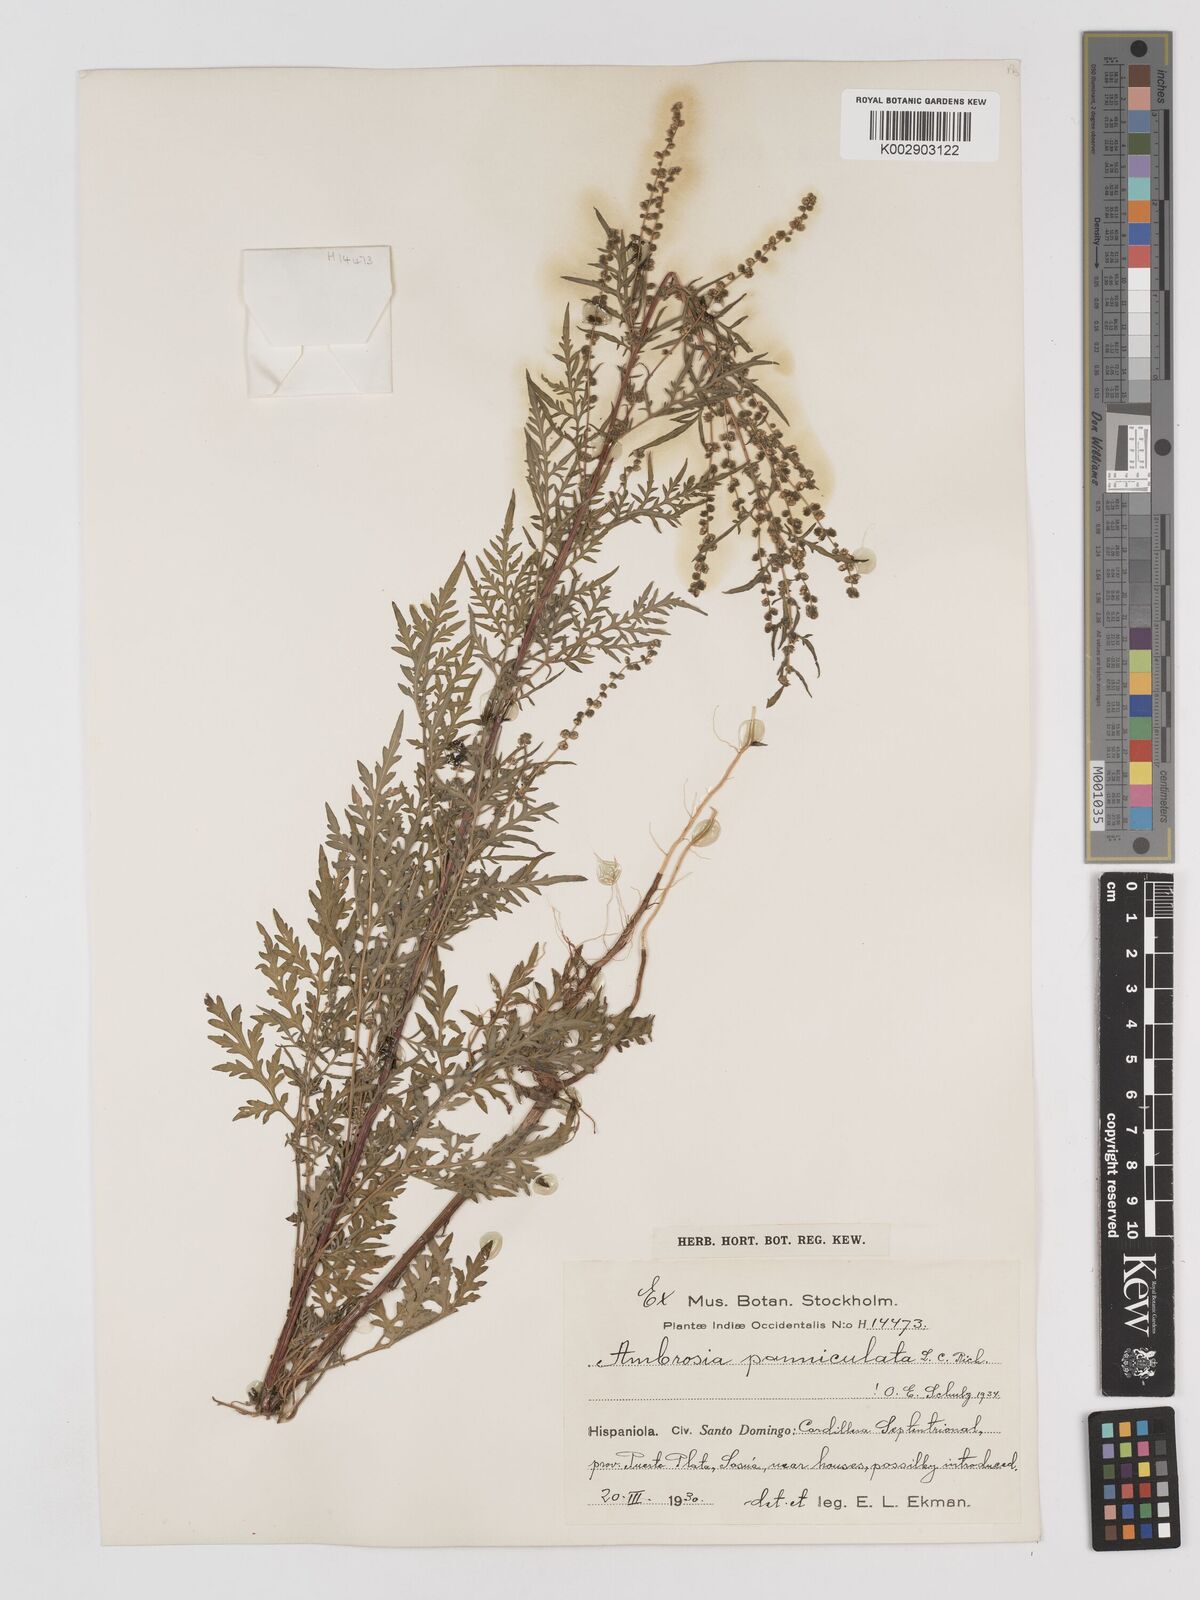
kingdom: Plantae
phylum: Tracheophyta
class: Magnoliopsida
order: Asterales
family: Asteraceae
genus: Ambrosia
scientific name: Ambrosia cumanensis
